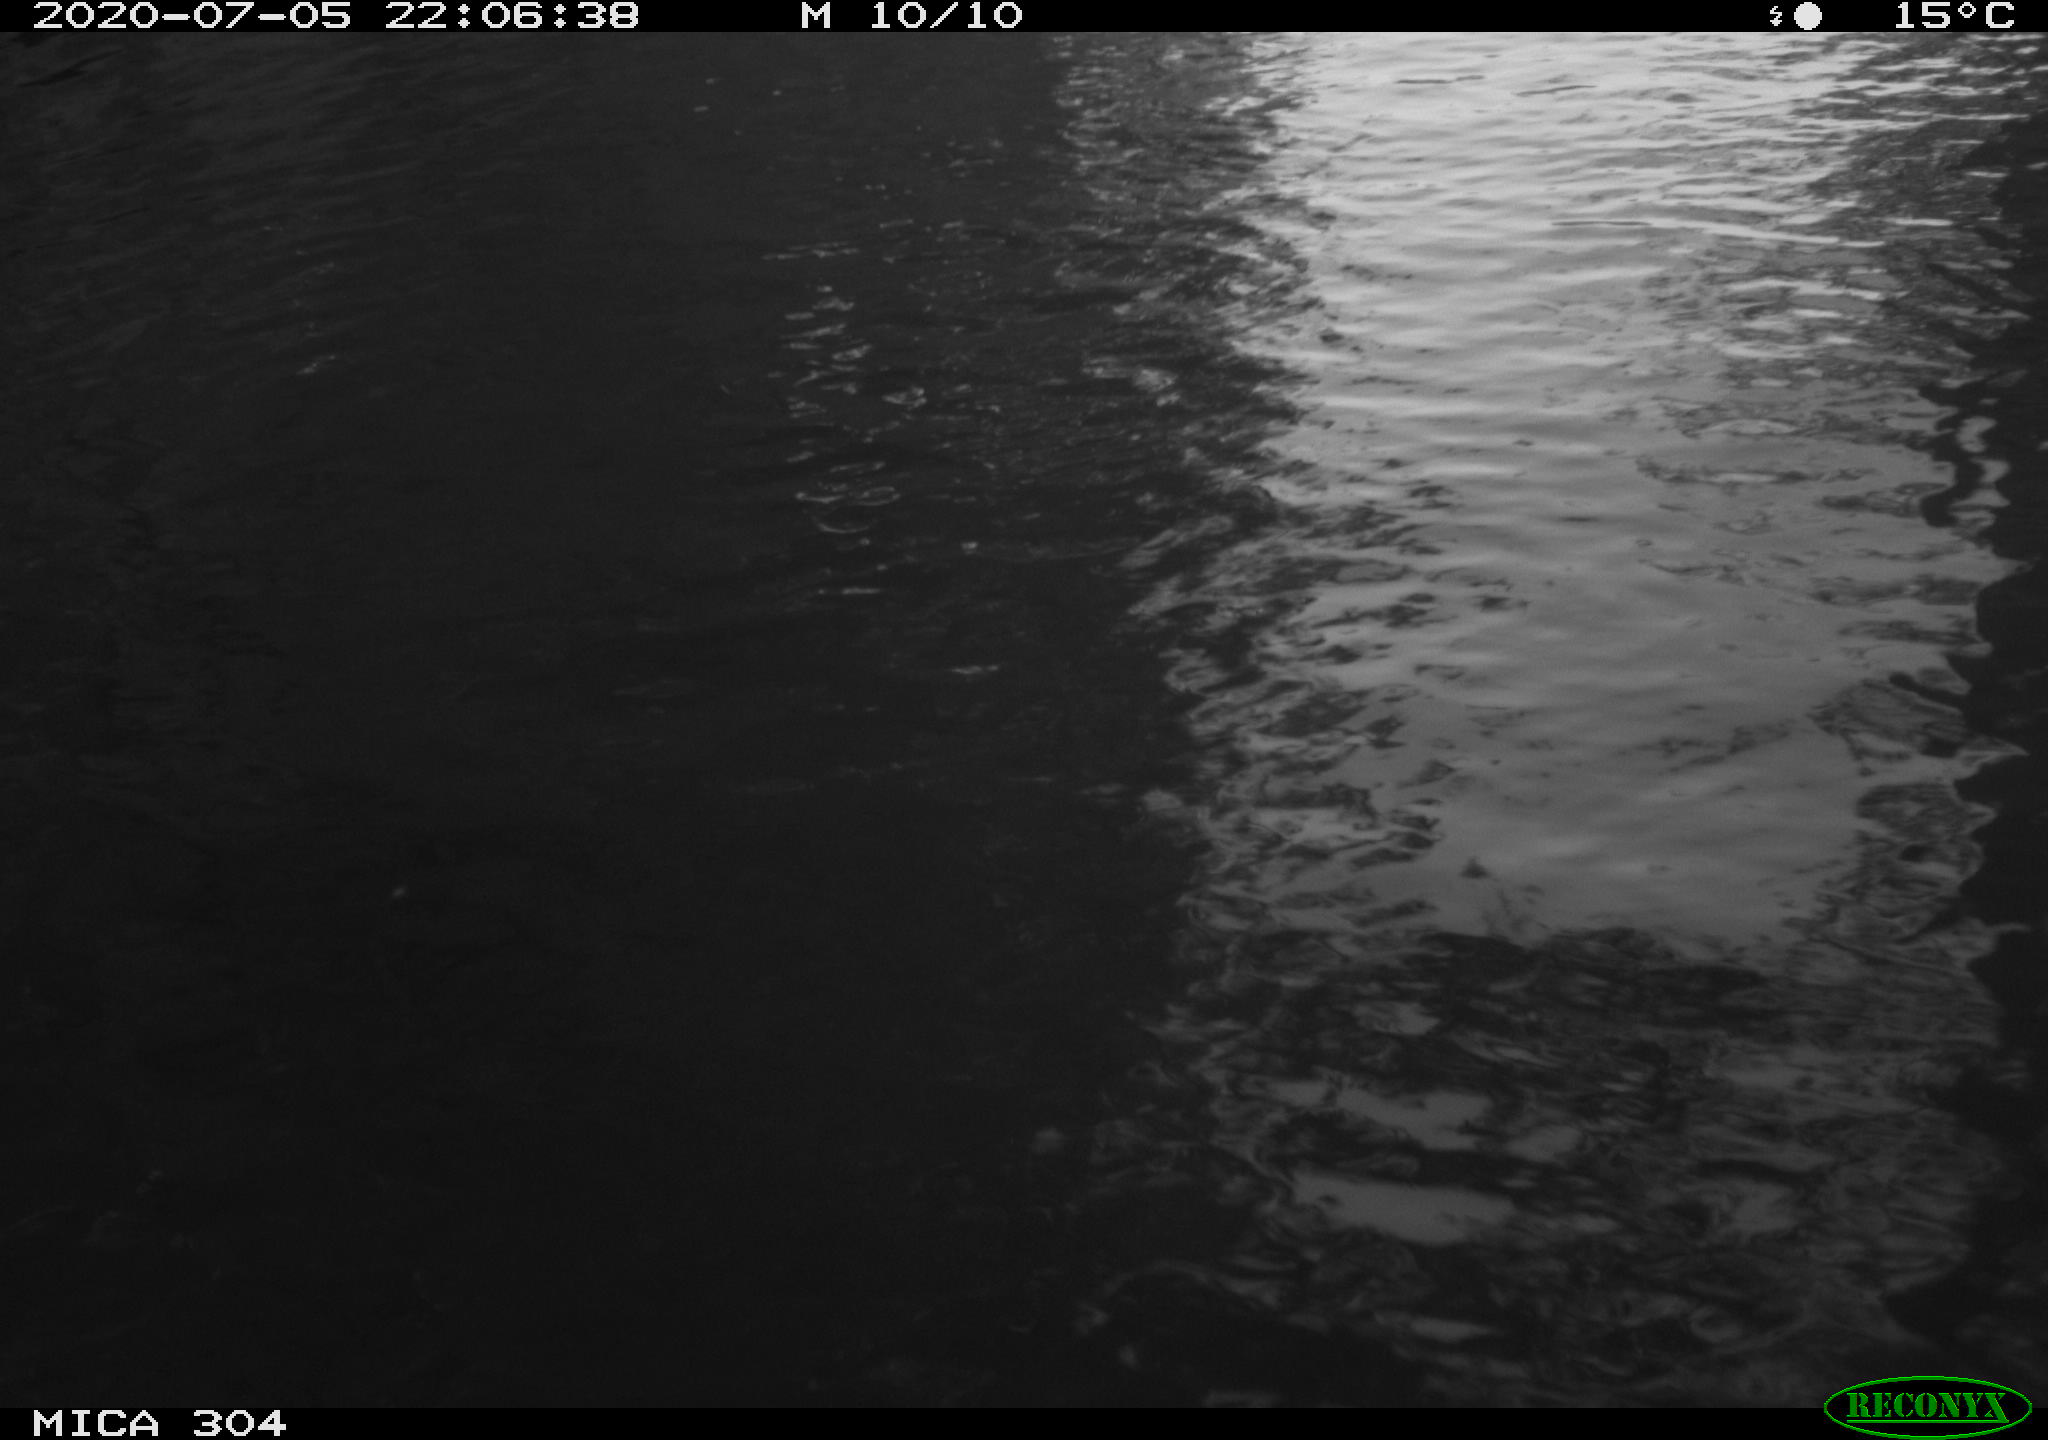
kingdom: Animalia
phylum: Chordata
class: Aves
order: Anseriformes
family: Anatidae
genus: Anas
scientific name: Anas platyrhynchos
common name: Mallard
